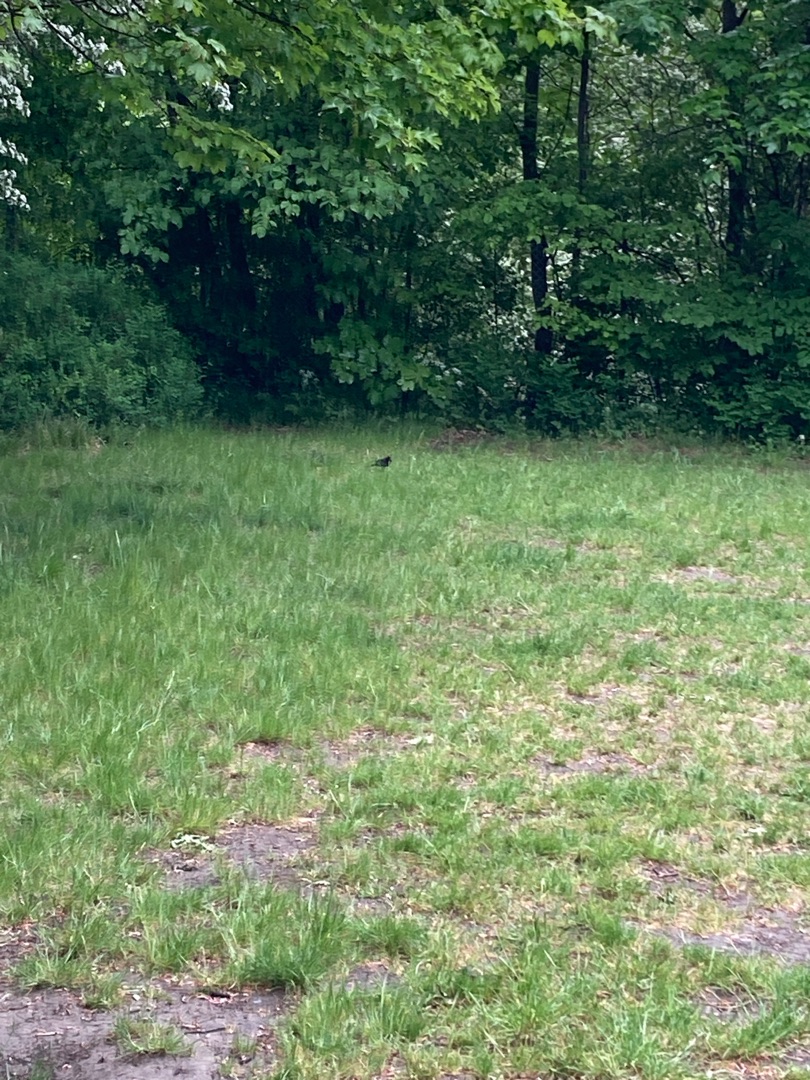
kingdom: Animalia
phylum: Chordata
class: Aves
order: Passeriformes
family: Turdidae
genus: Turdus
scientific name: Turdus merula
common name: Solsort
